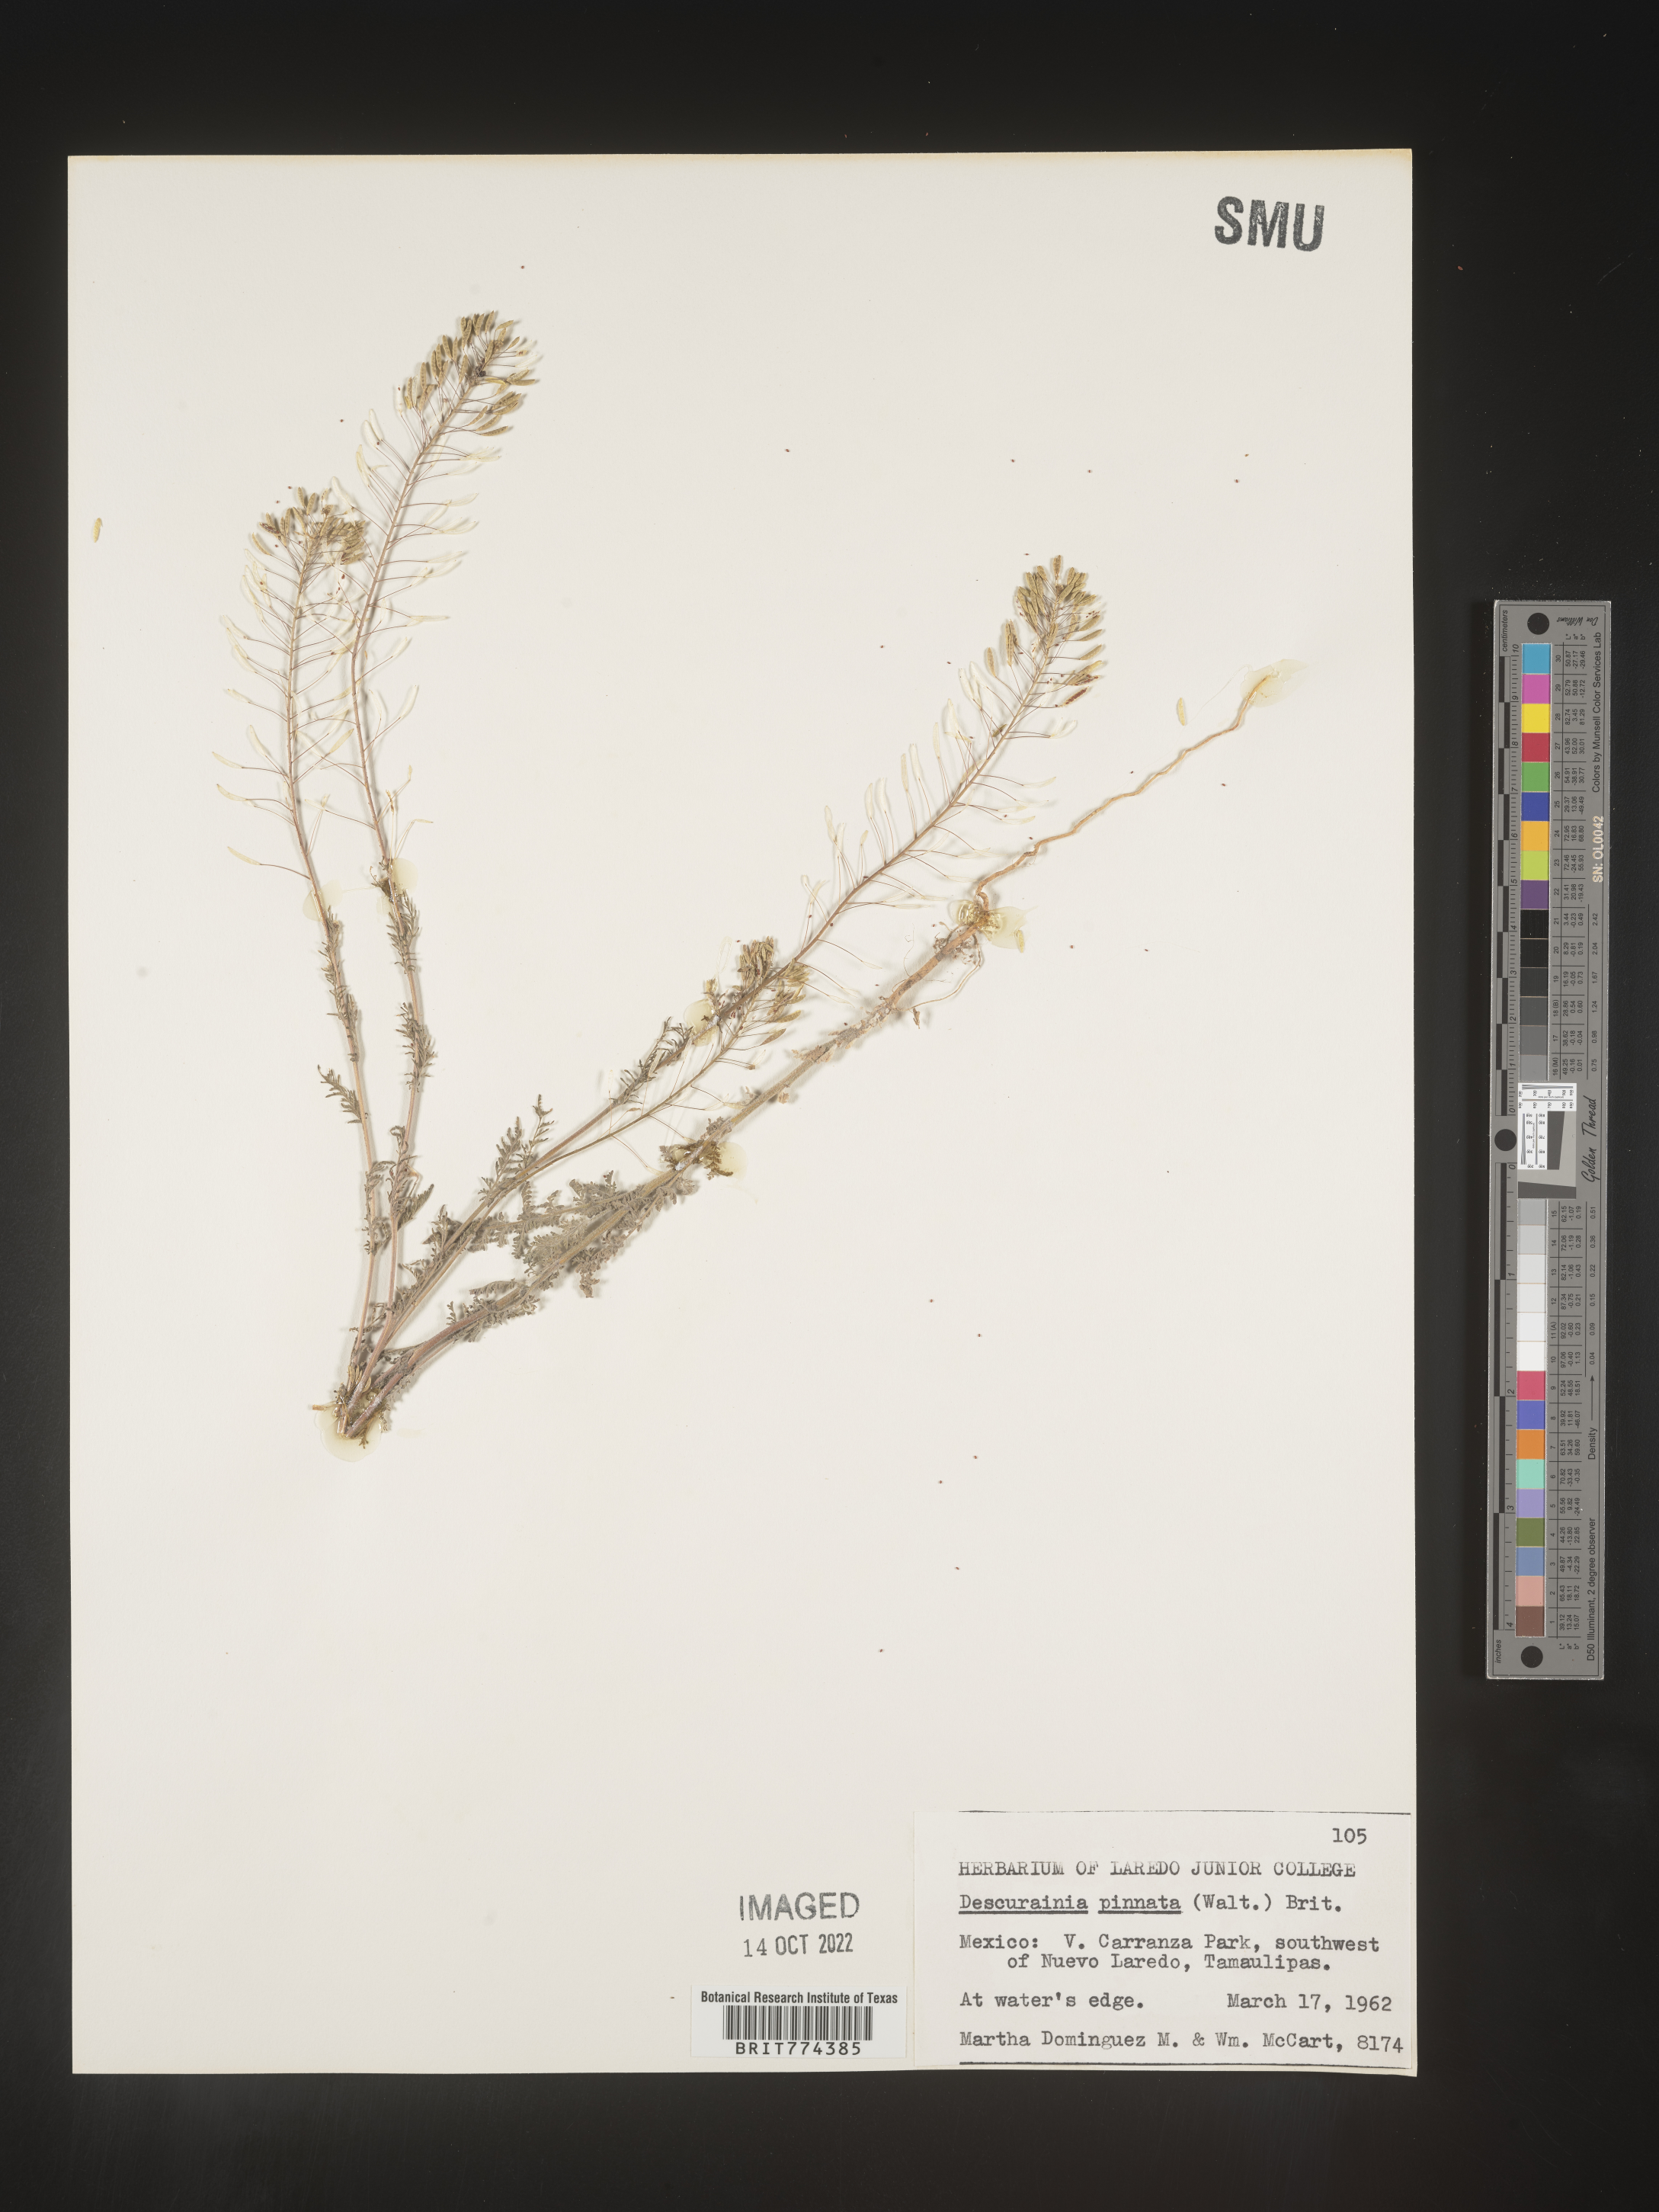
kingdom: Plantae
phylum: Tracheophyta
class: Magnoliopsida
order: Brassicales
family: Brassicaceae
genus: Descurainia
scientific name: Descurainia
